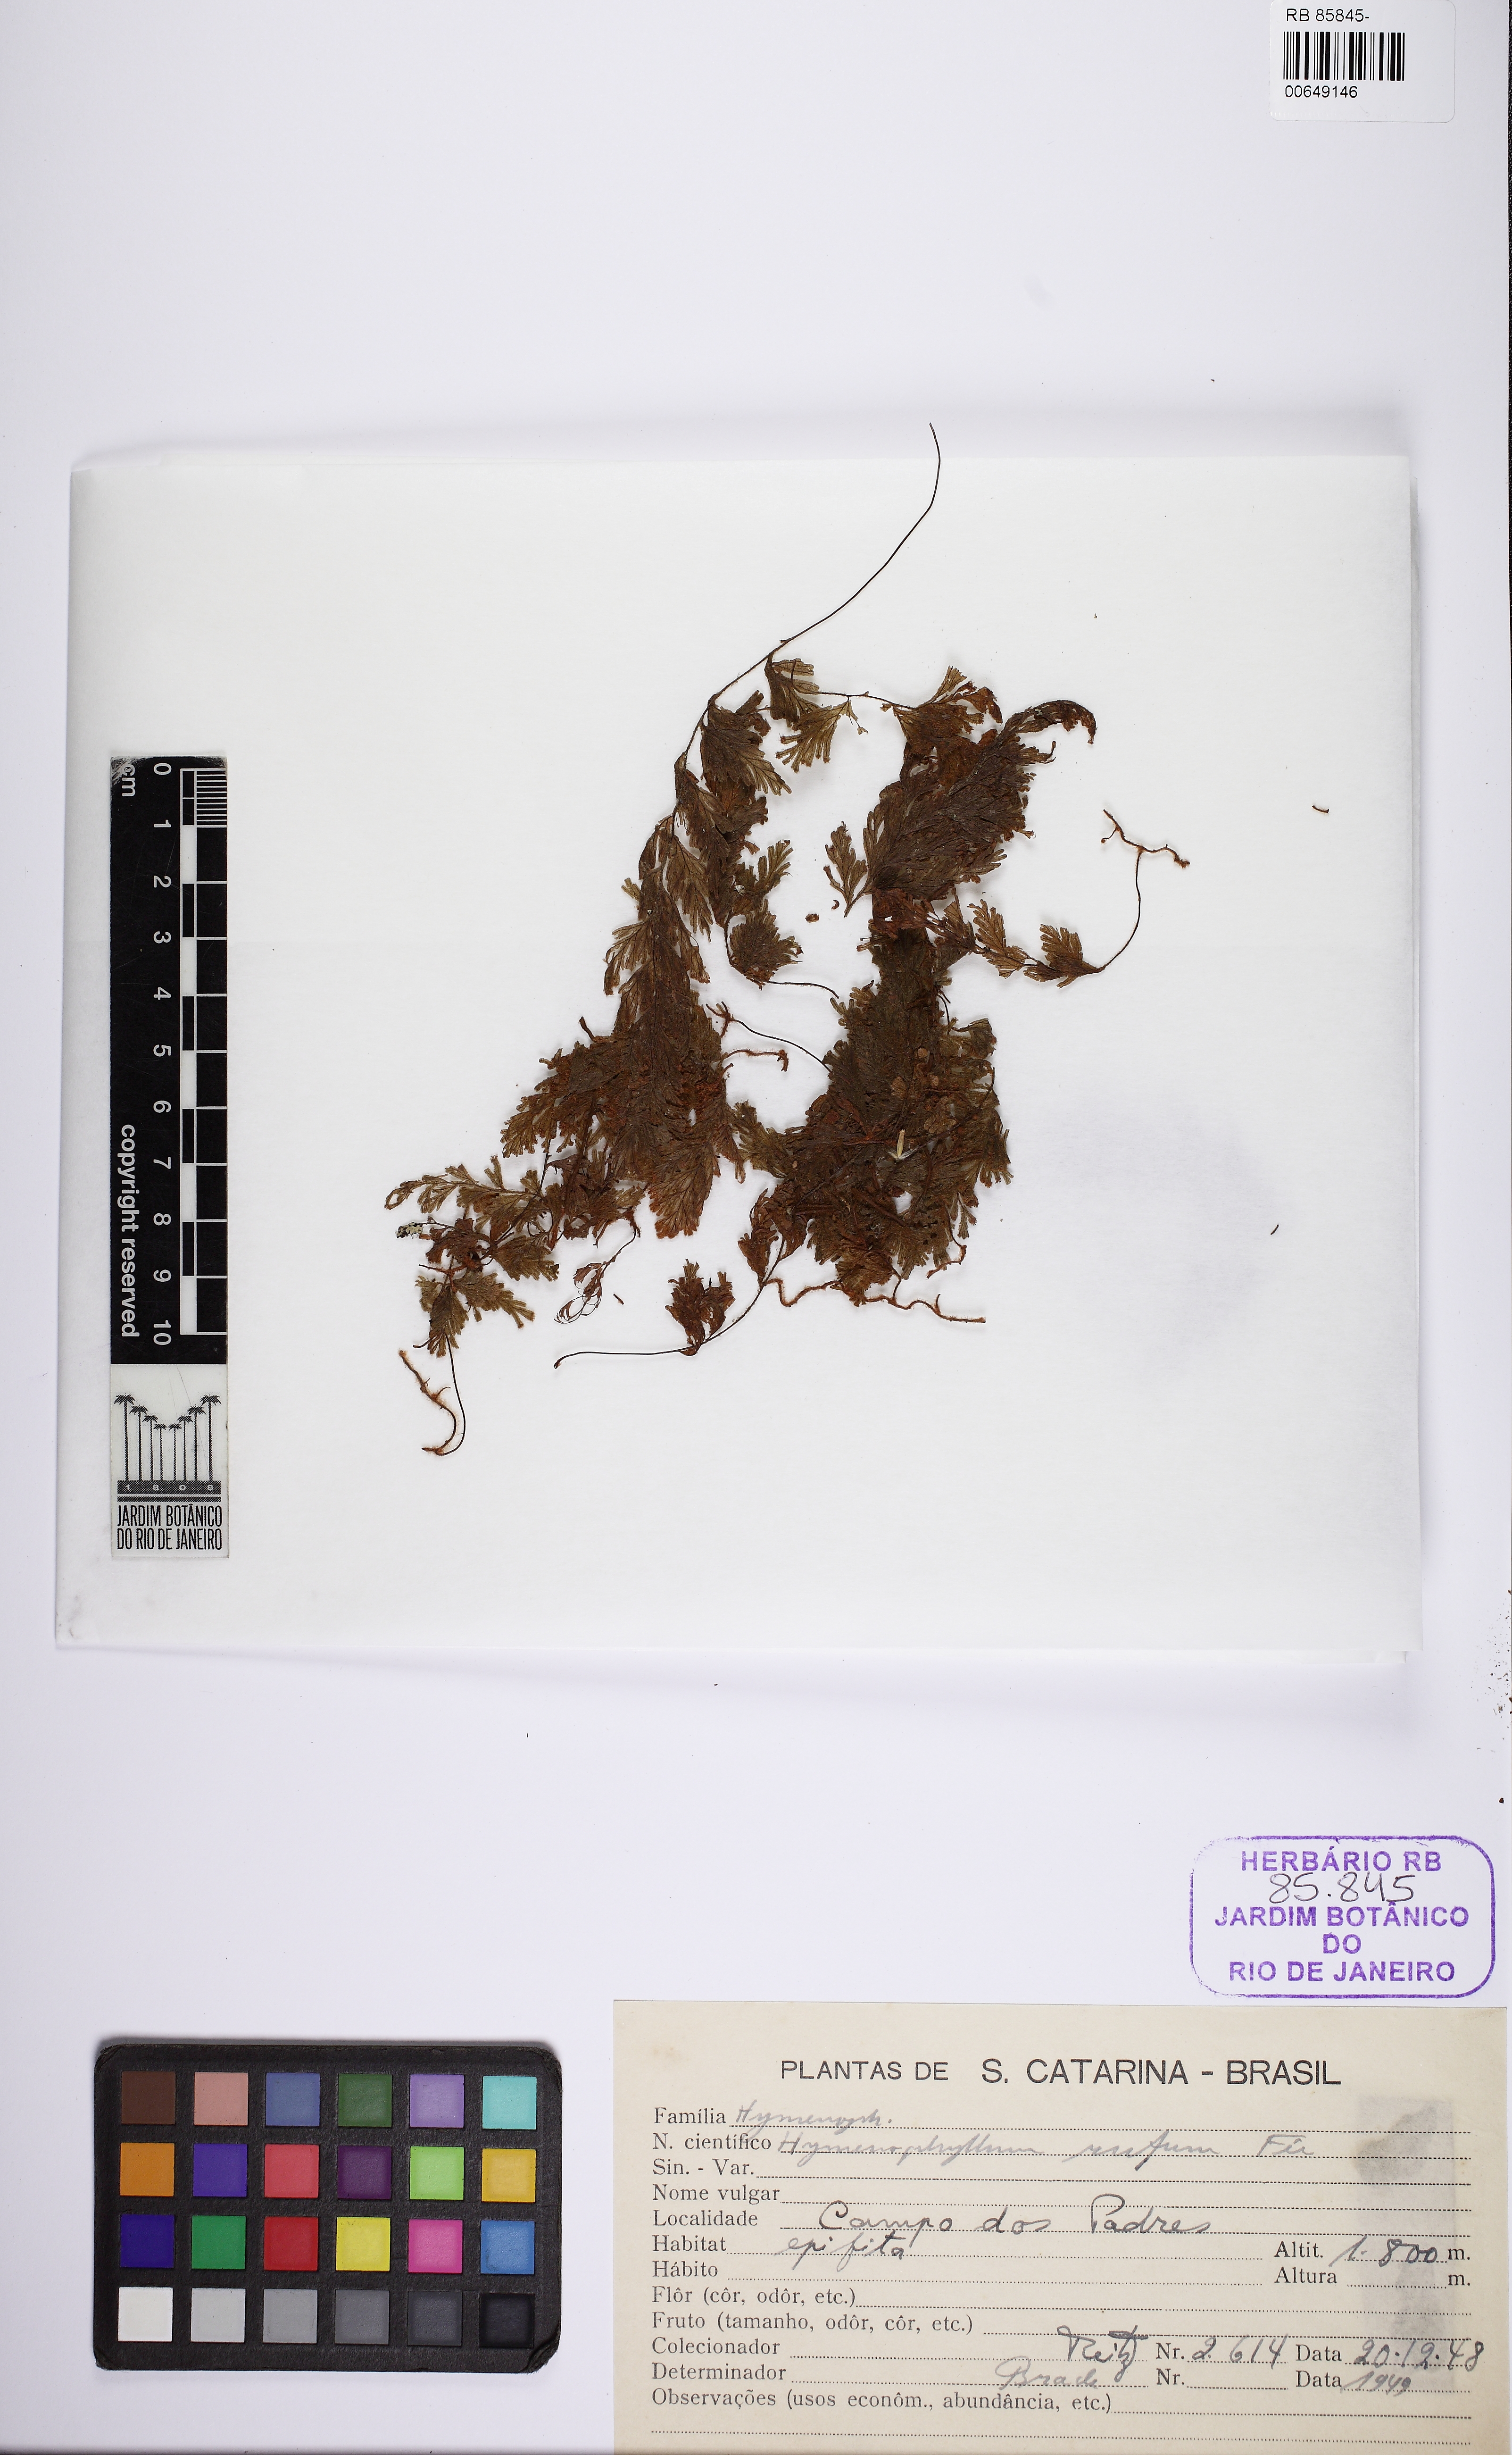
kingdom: Plantae
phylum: Tracheophyta
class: Polypodiopsida
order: Hymenophyllales
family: Hymenophyllaceae
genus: Hymenophyllum
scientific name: Hymenophyllum rufum
